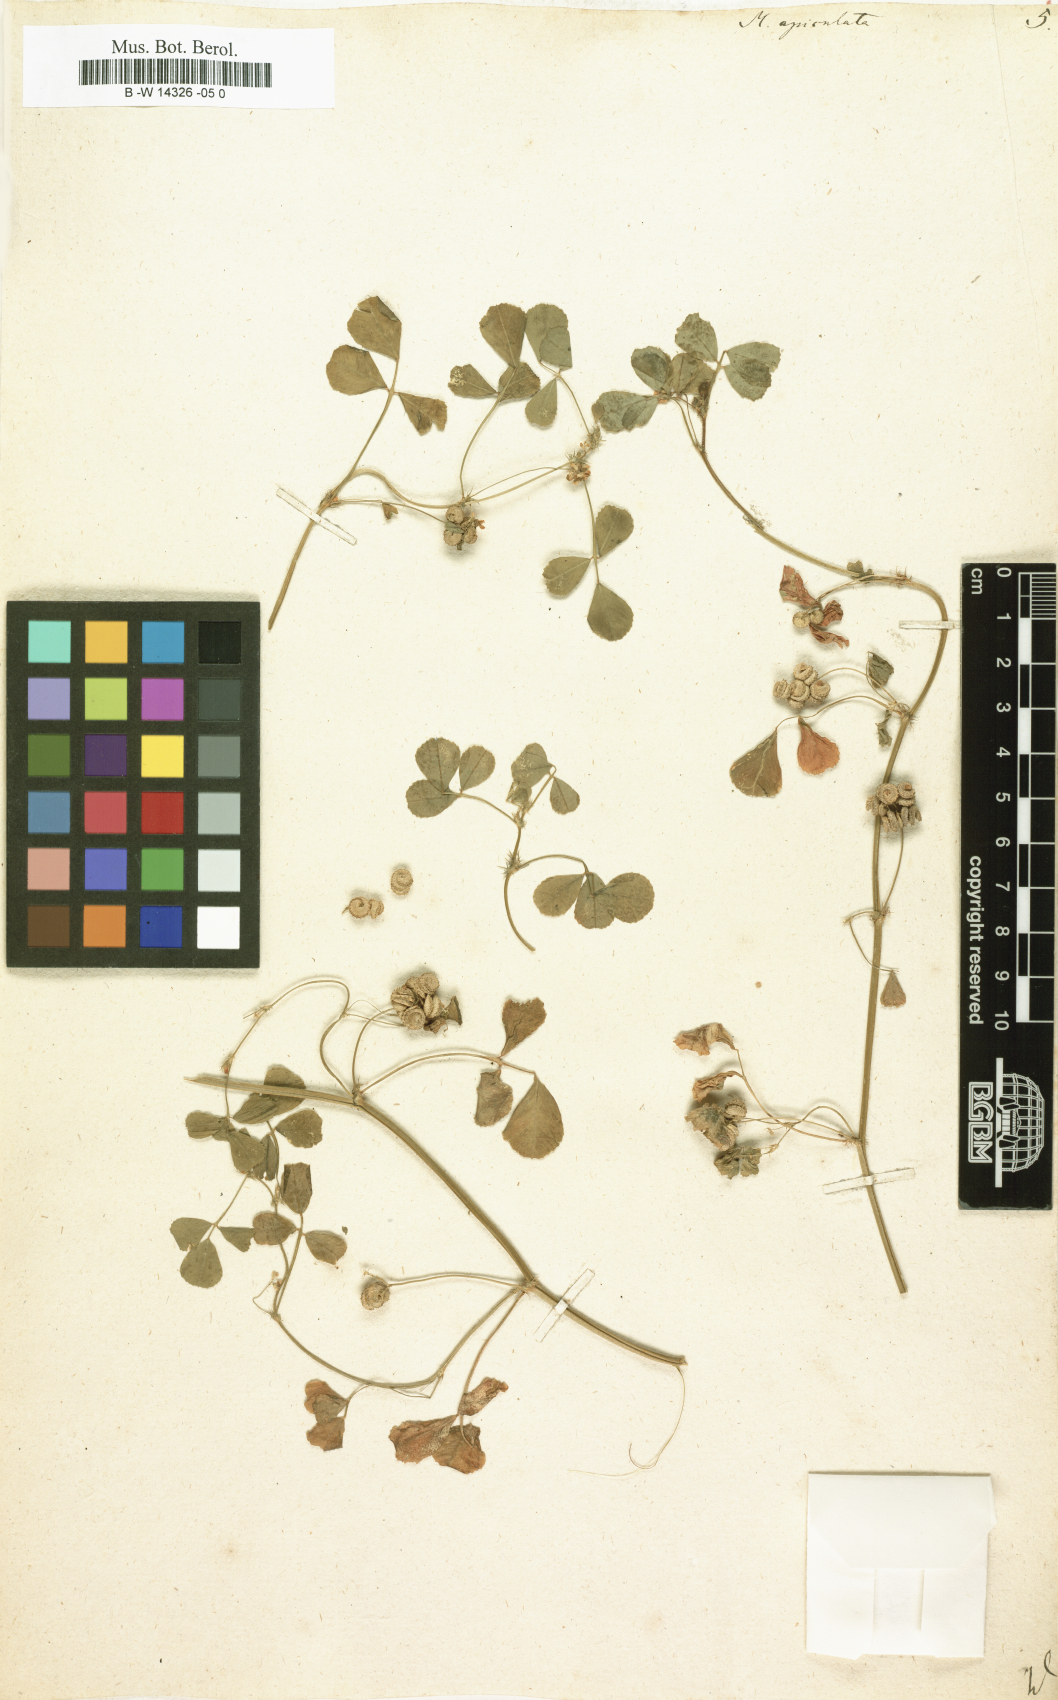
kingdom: Plantae
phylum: Tracheophyta
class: Magnoliopsida
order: Fabales
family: Fabaceae
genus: Medicago
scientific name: Medicago polymorpha
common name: Burclover
